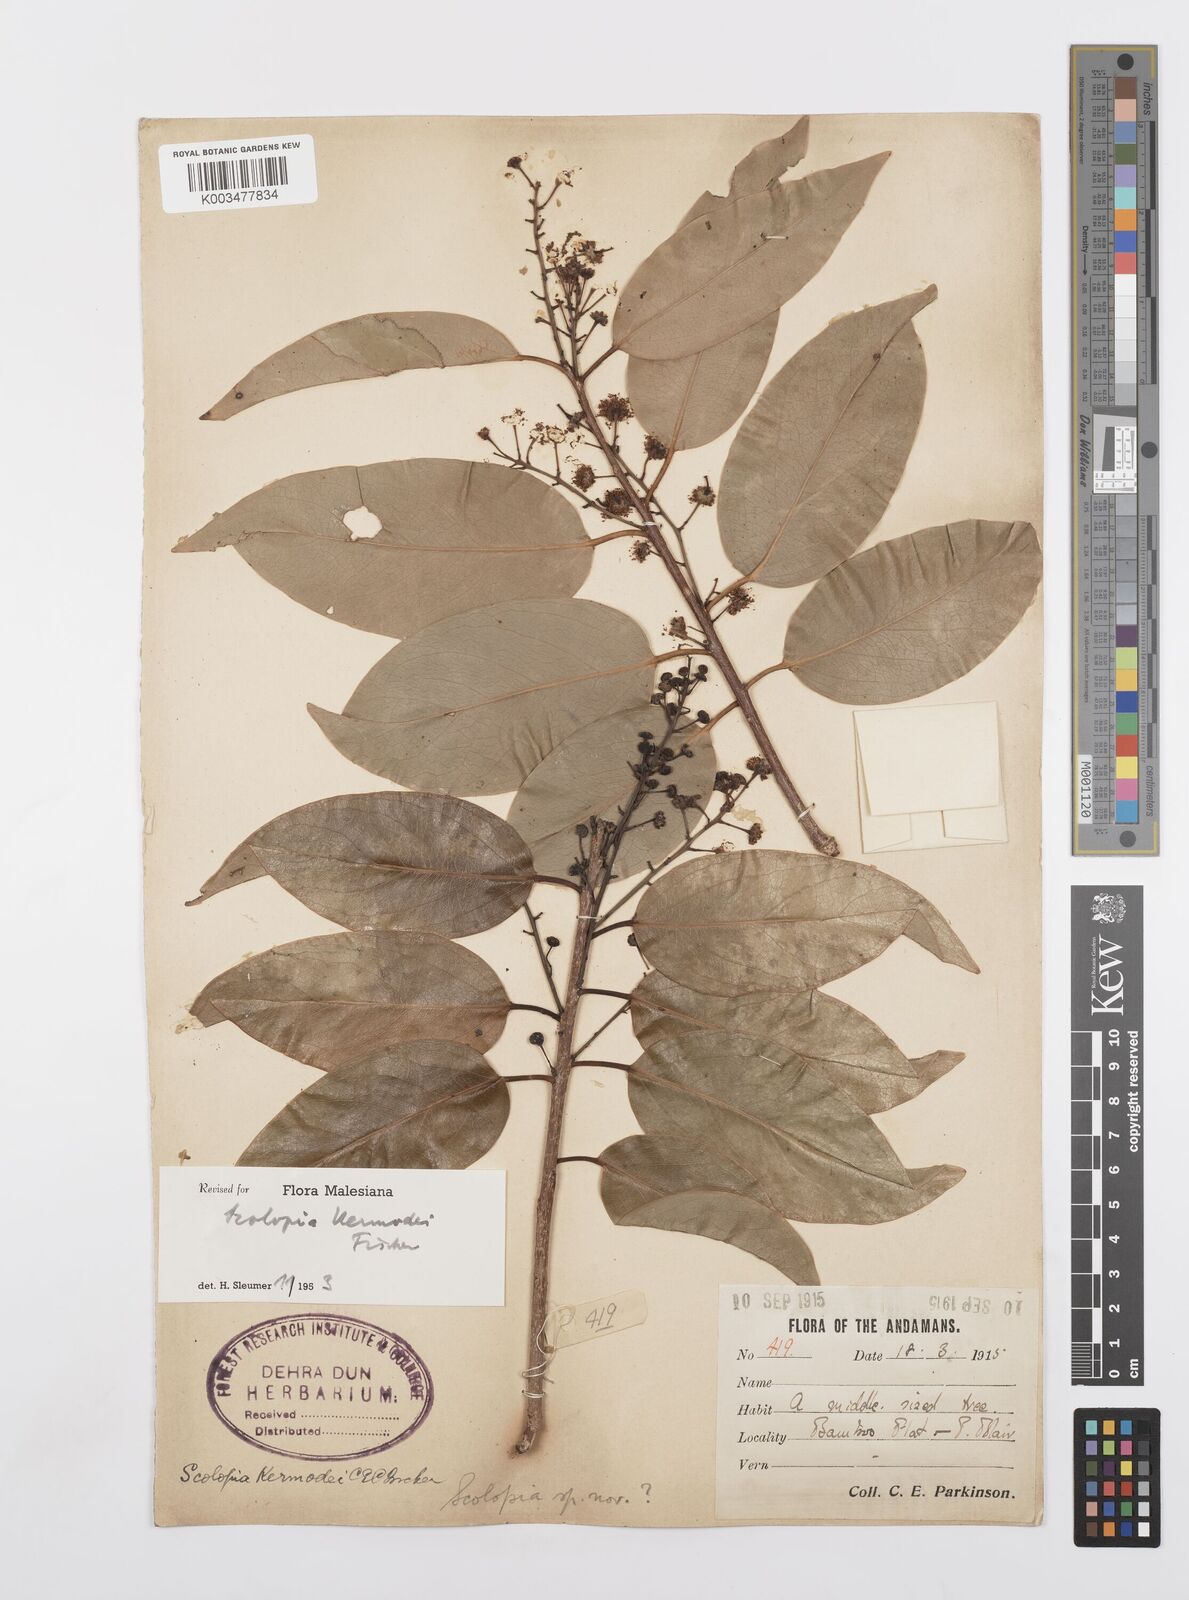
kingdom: Plantae
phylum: Tracheophyta
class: Magnoliopsida
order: Malpighiales
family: Salicaceae
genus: Scolopia
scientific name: Scolopia kermodei
